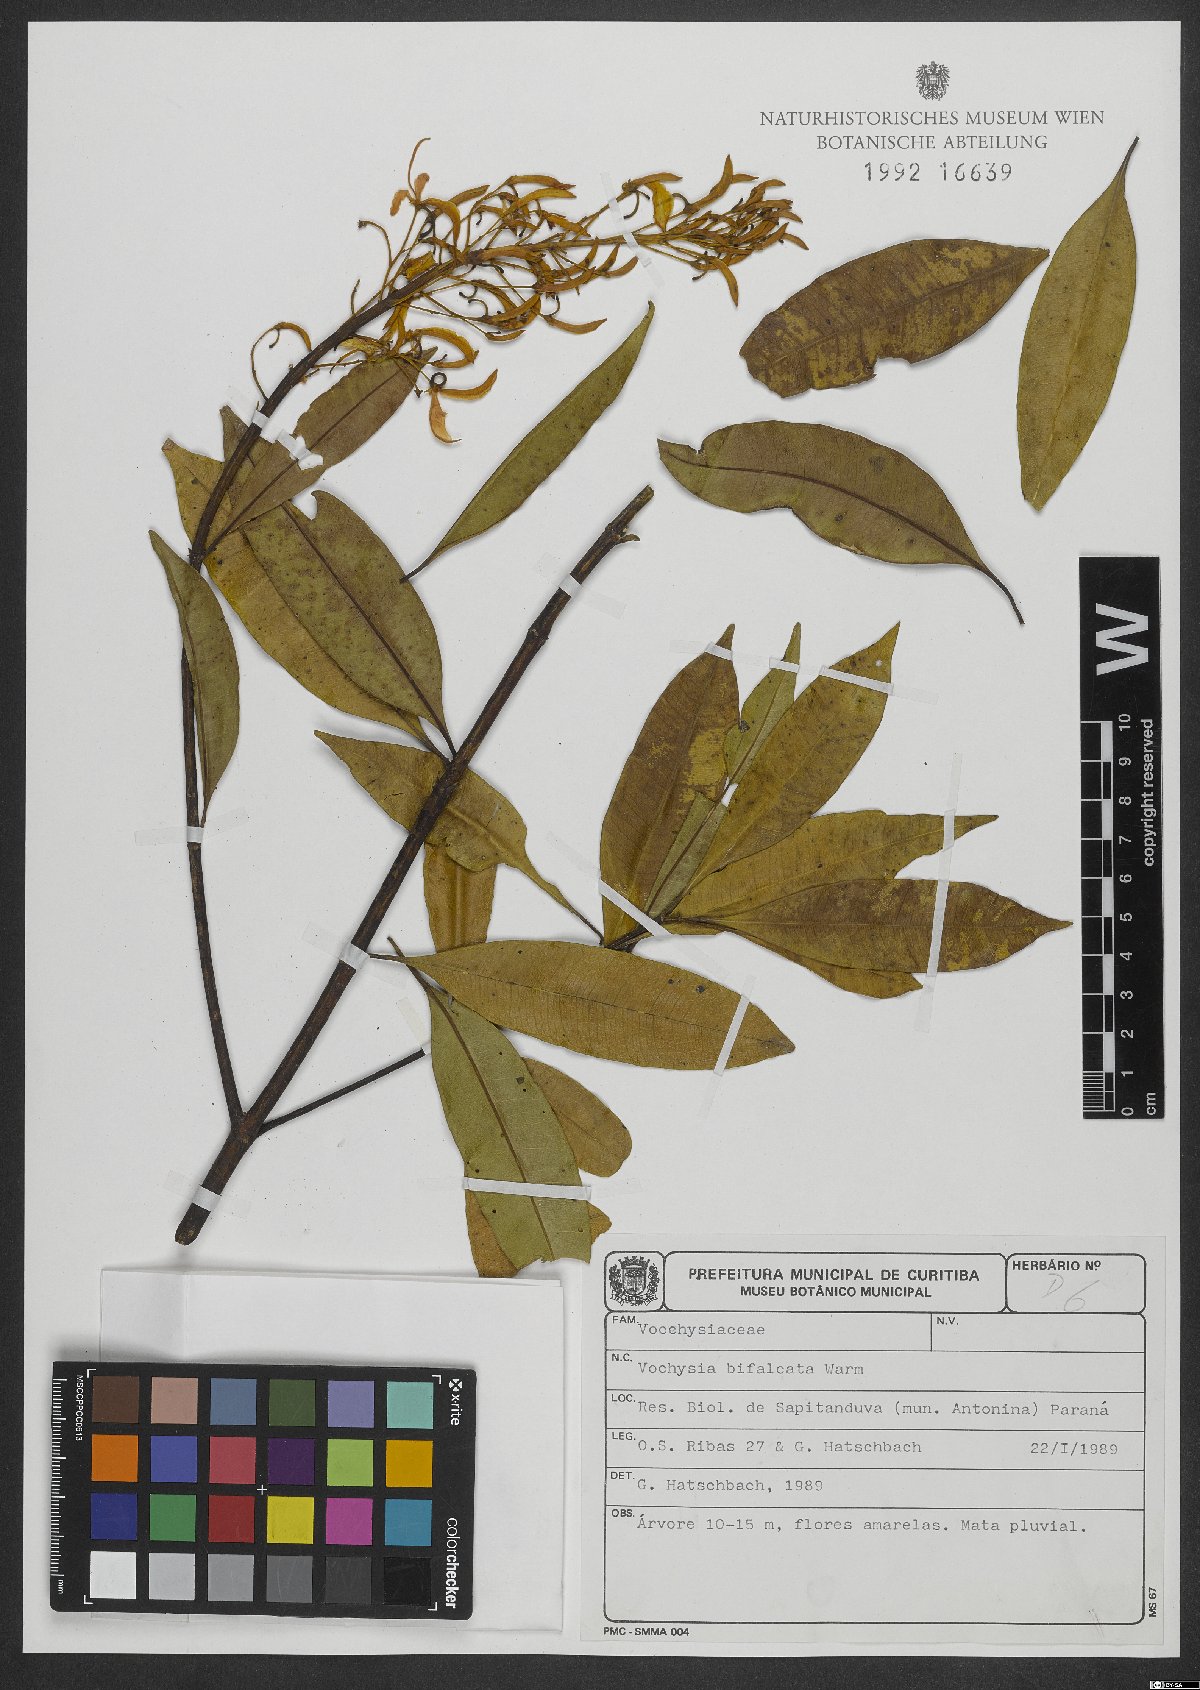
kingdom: Plantae
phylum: Tracheophyta
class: Magnoliopsida
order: Myrtales
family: Vochysiaceae
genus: Vochysia
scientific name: Vochysia bifalcata
